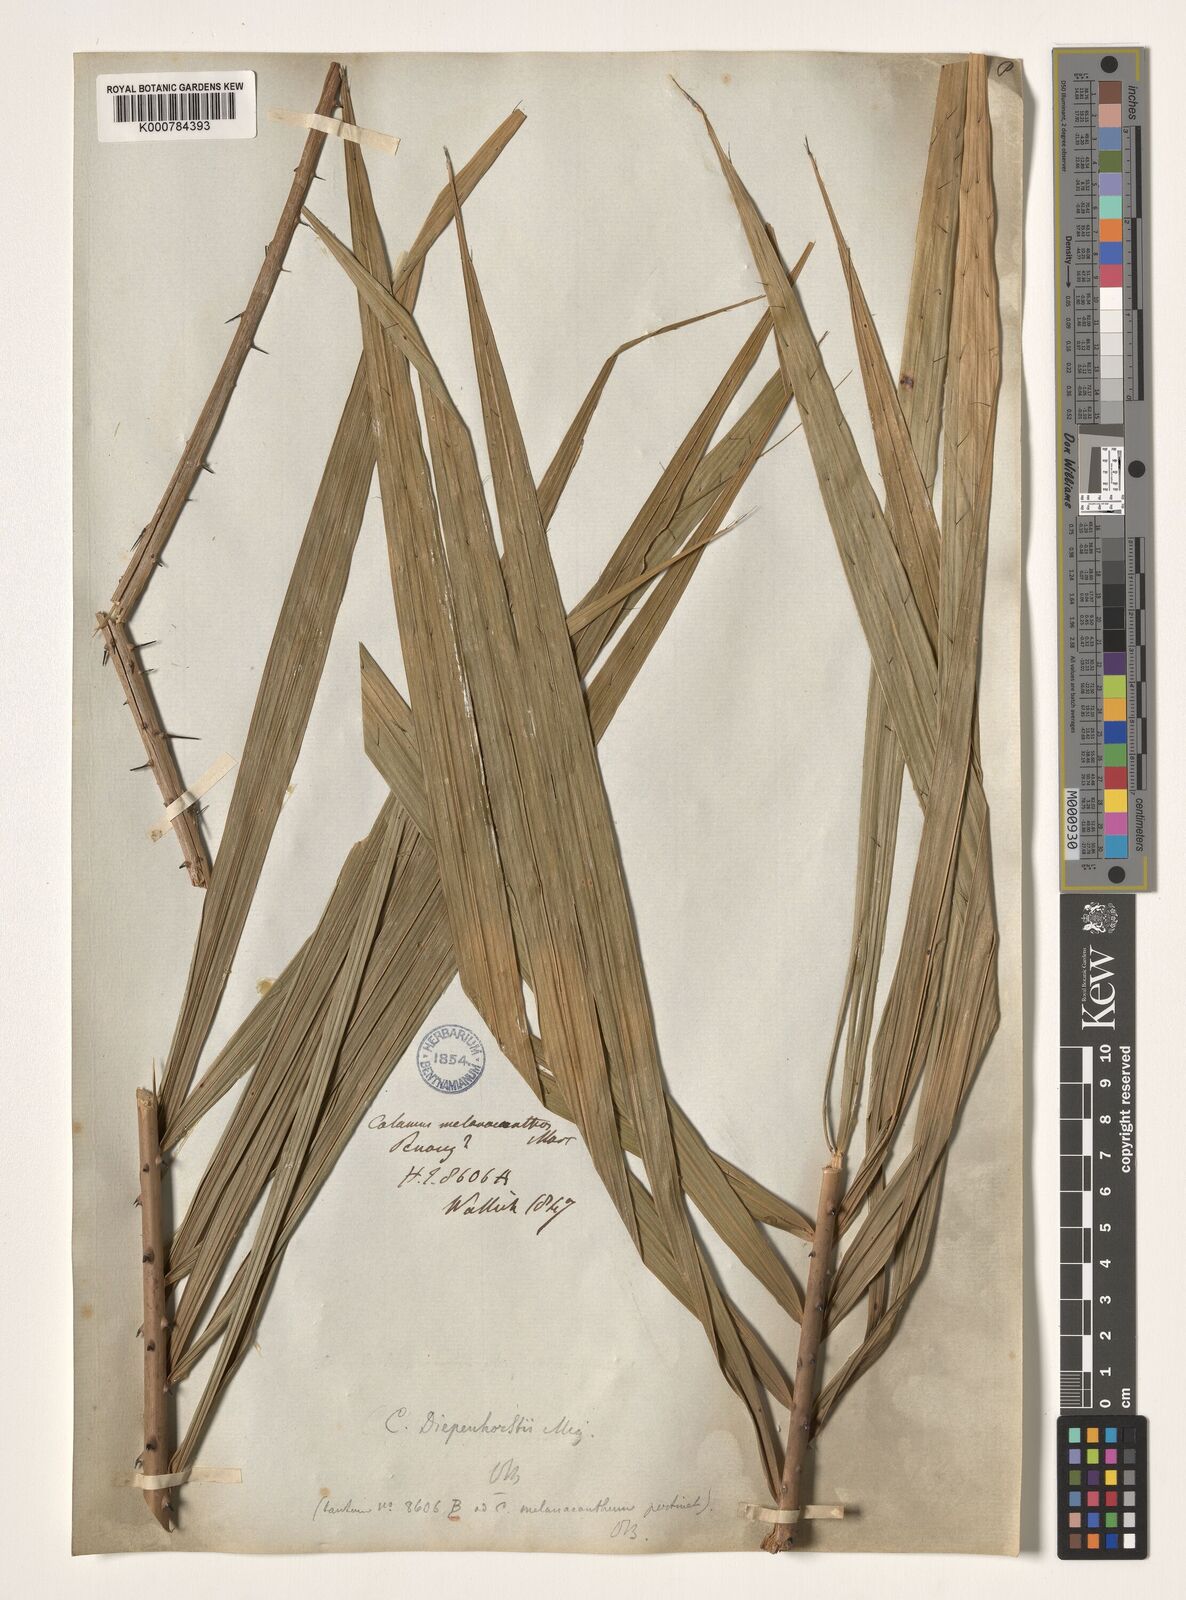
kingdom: Plantae
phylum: Tracheophyta
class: Liliopsida
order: Arecales
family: Arecaceae
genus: Calamus
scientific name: Calamus diepenhorstii
